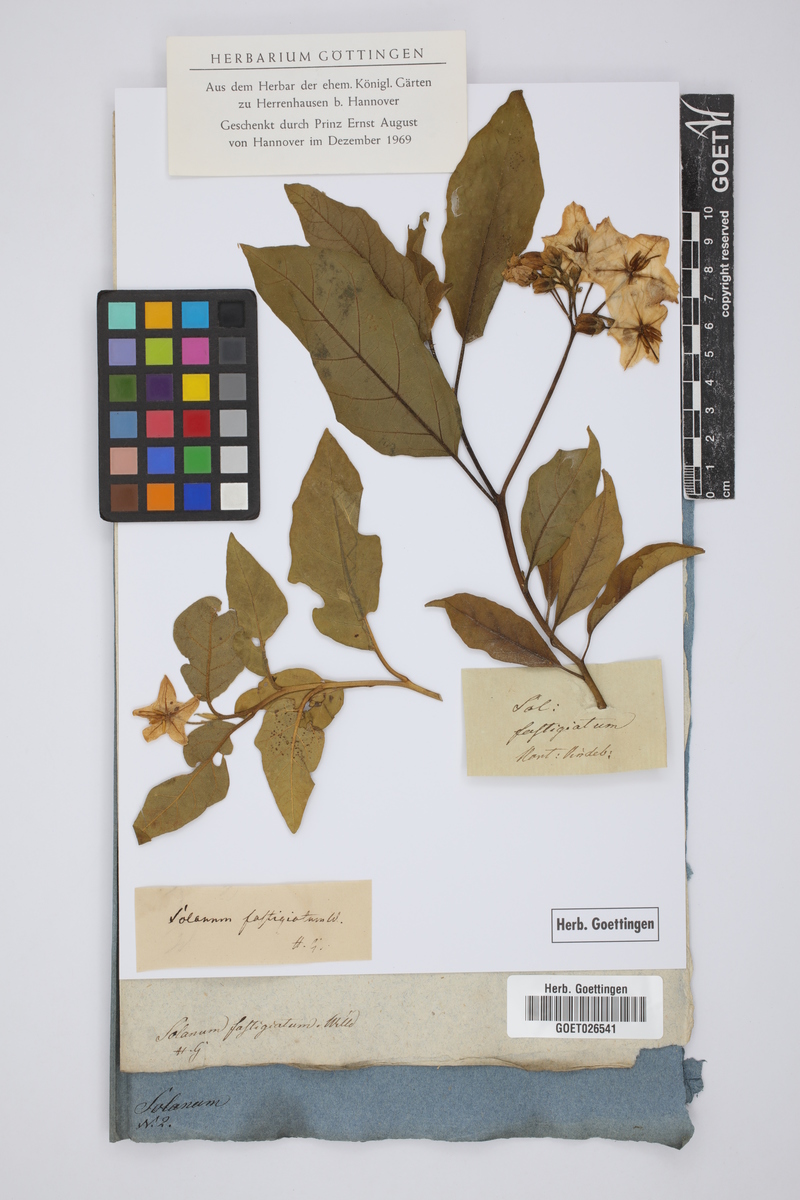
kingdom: Plantae
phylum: Tracheophyta
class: Magnoliopsida
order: Solanales
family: Solanaceae
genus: Solanum
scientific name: Solanum bonariense
